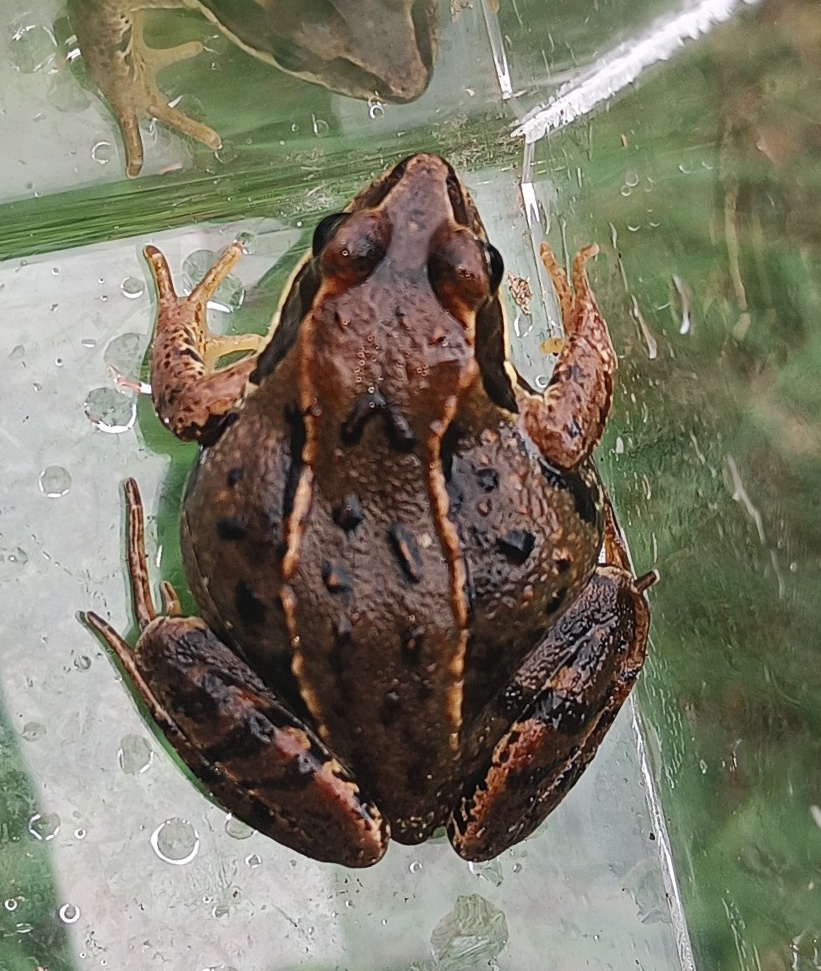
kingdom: Animalia
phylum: Chordata
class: Amphibia
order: Anura
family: Ranidae
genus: Rana
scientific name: Rana arvalis
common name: Spidssnudet frø
